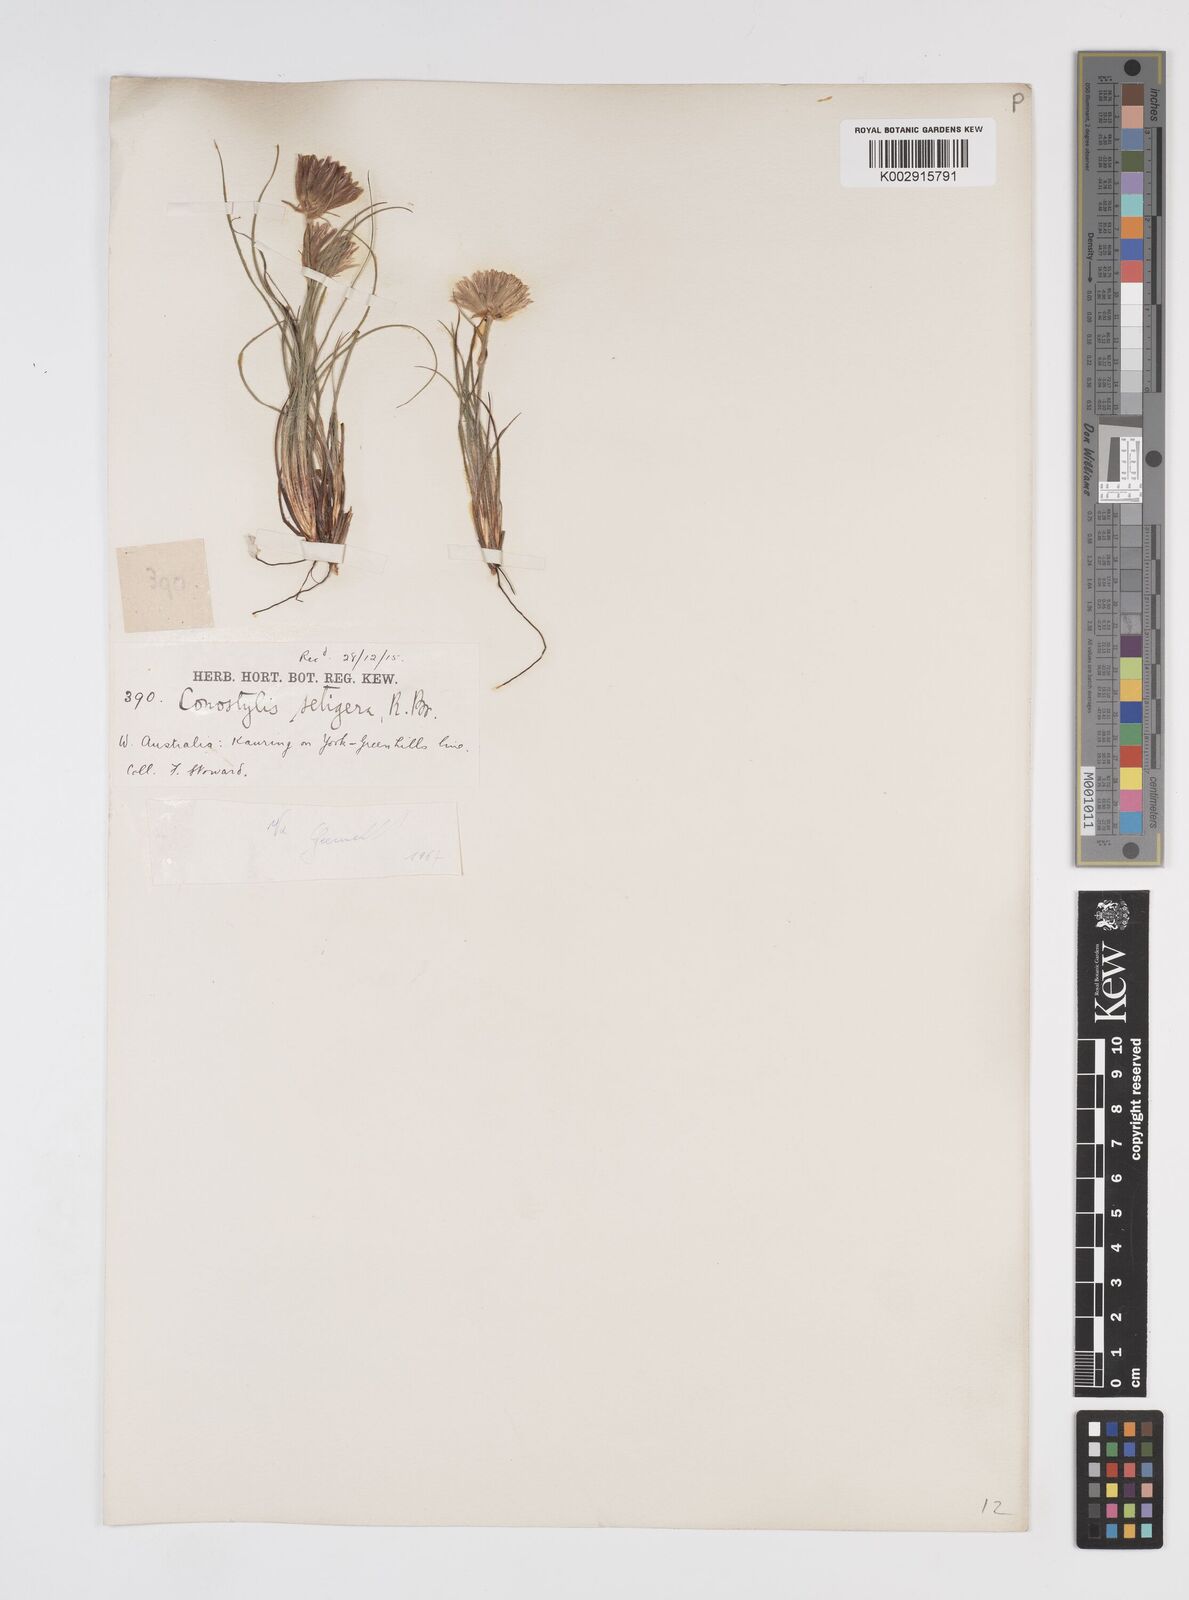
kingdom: Plantae
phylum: Tracheophyta
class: Liliopsida
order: Commelinales
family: Haemodoraceae
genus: Conostylis
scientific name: Conostylis setigera
